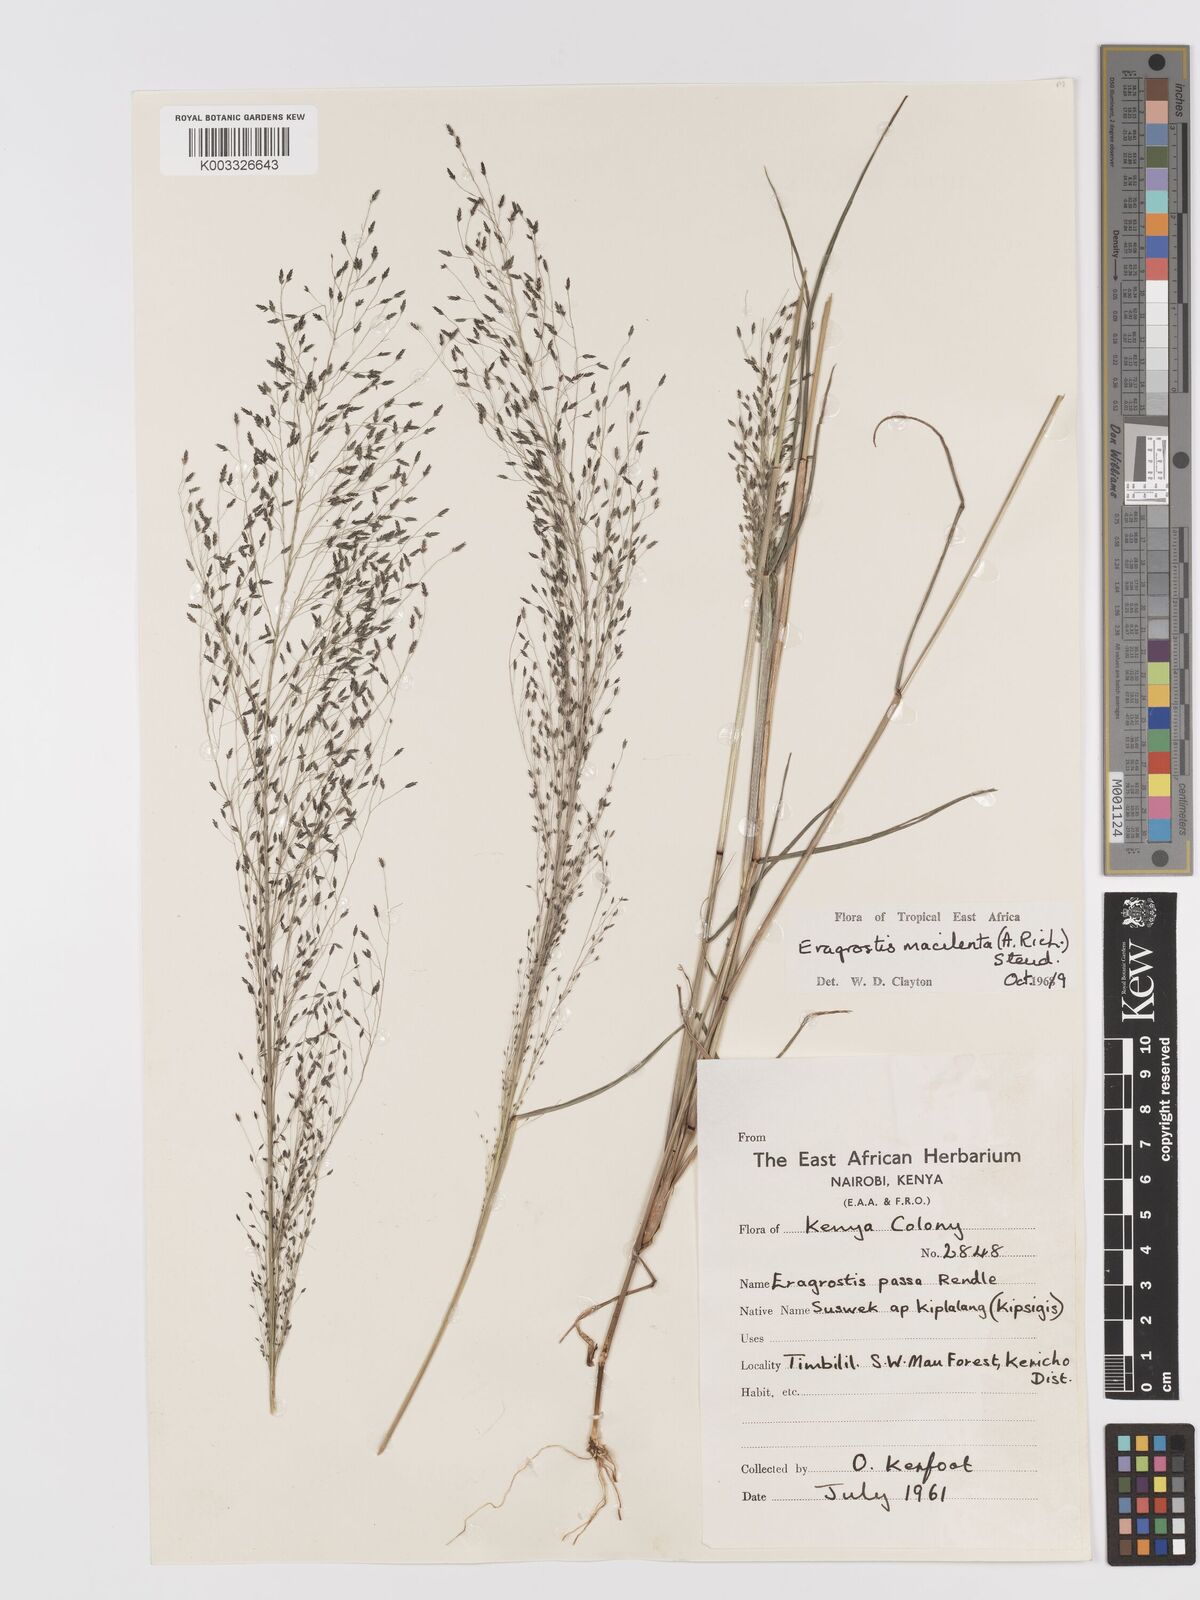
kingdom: Plantae
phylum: Tracheophyta
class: Liliopsida
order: Poales
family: Poaceae
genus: Eragrostis
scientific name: Eragrostis macilenta
